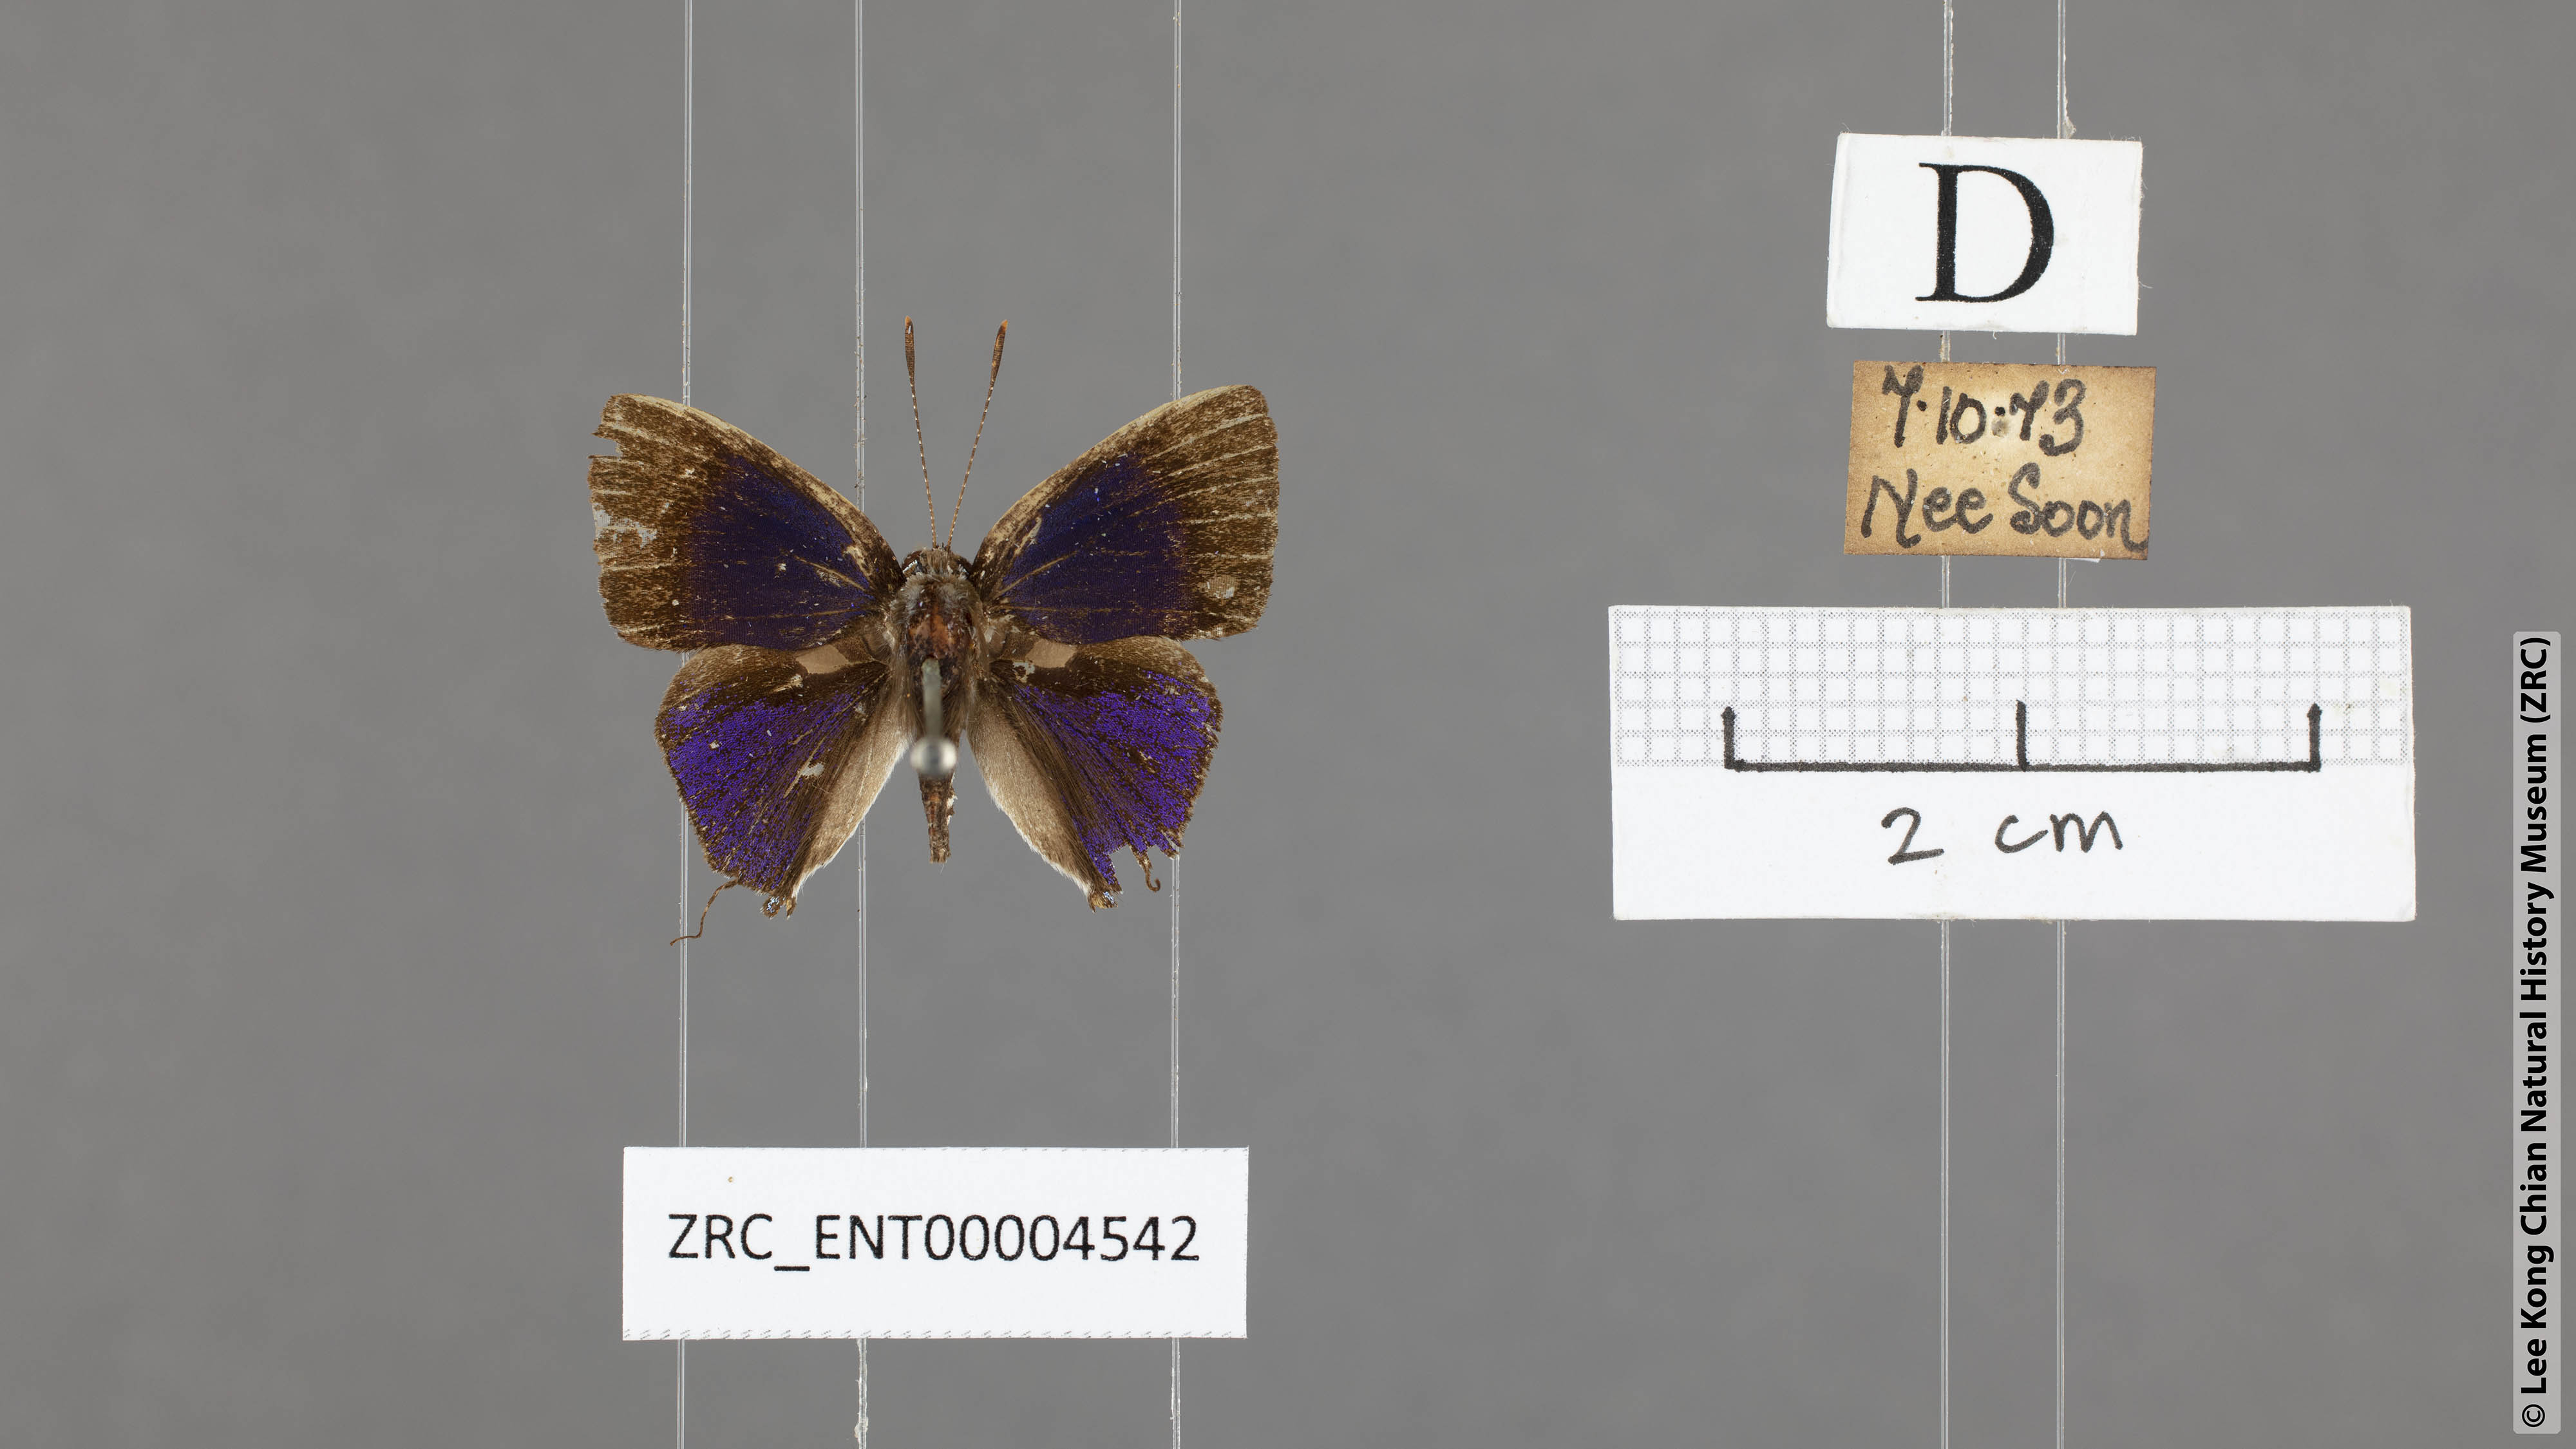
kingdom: Animalia
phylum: Arthropoda
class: Insecta
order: Lepidoptera
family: Lycaenidae
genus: Sinthusa
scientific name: Sinthusa nasaka
